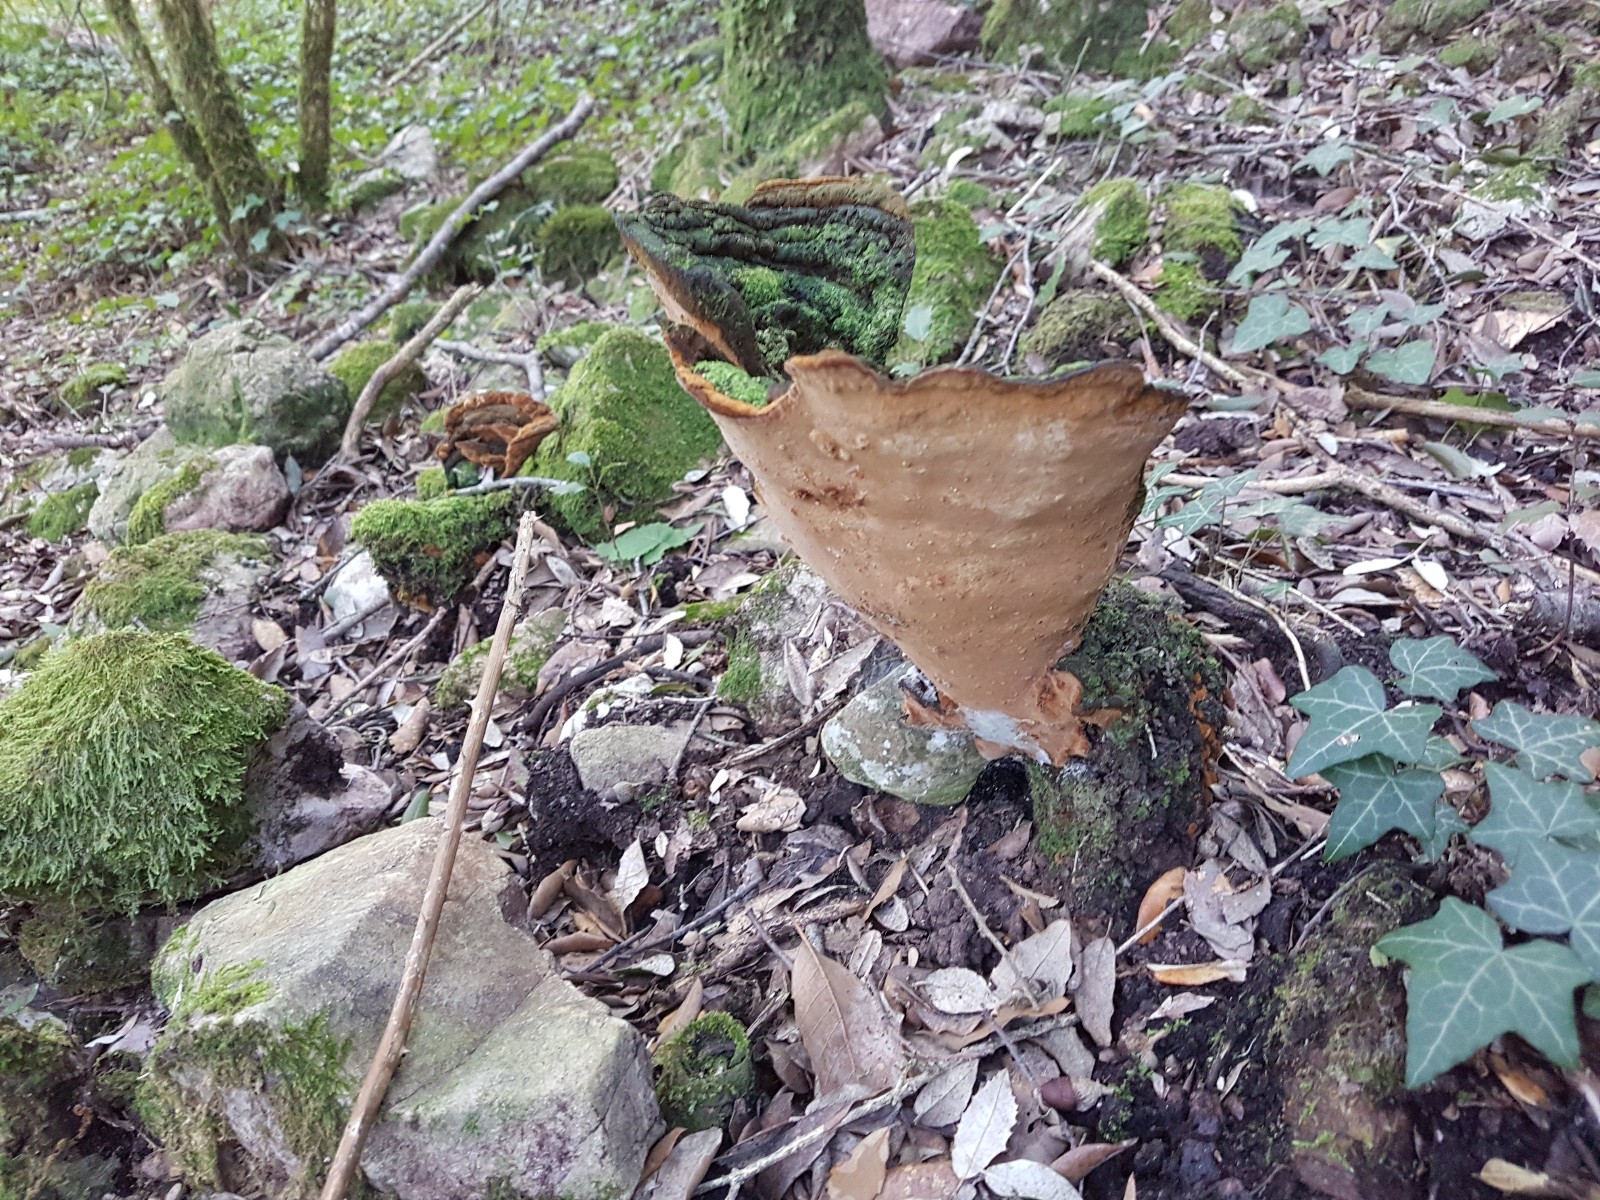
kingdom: Fungi
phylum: Basidiomycota
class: Agaricomycetes
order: Hymenochaetales
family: Hymenochaetaceae
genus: Phellinus
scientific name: Phellinus
